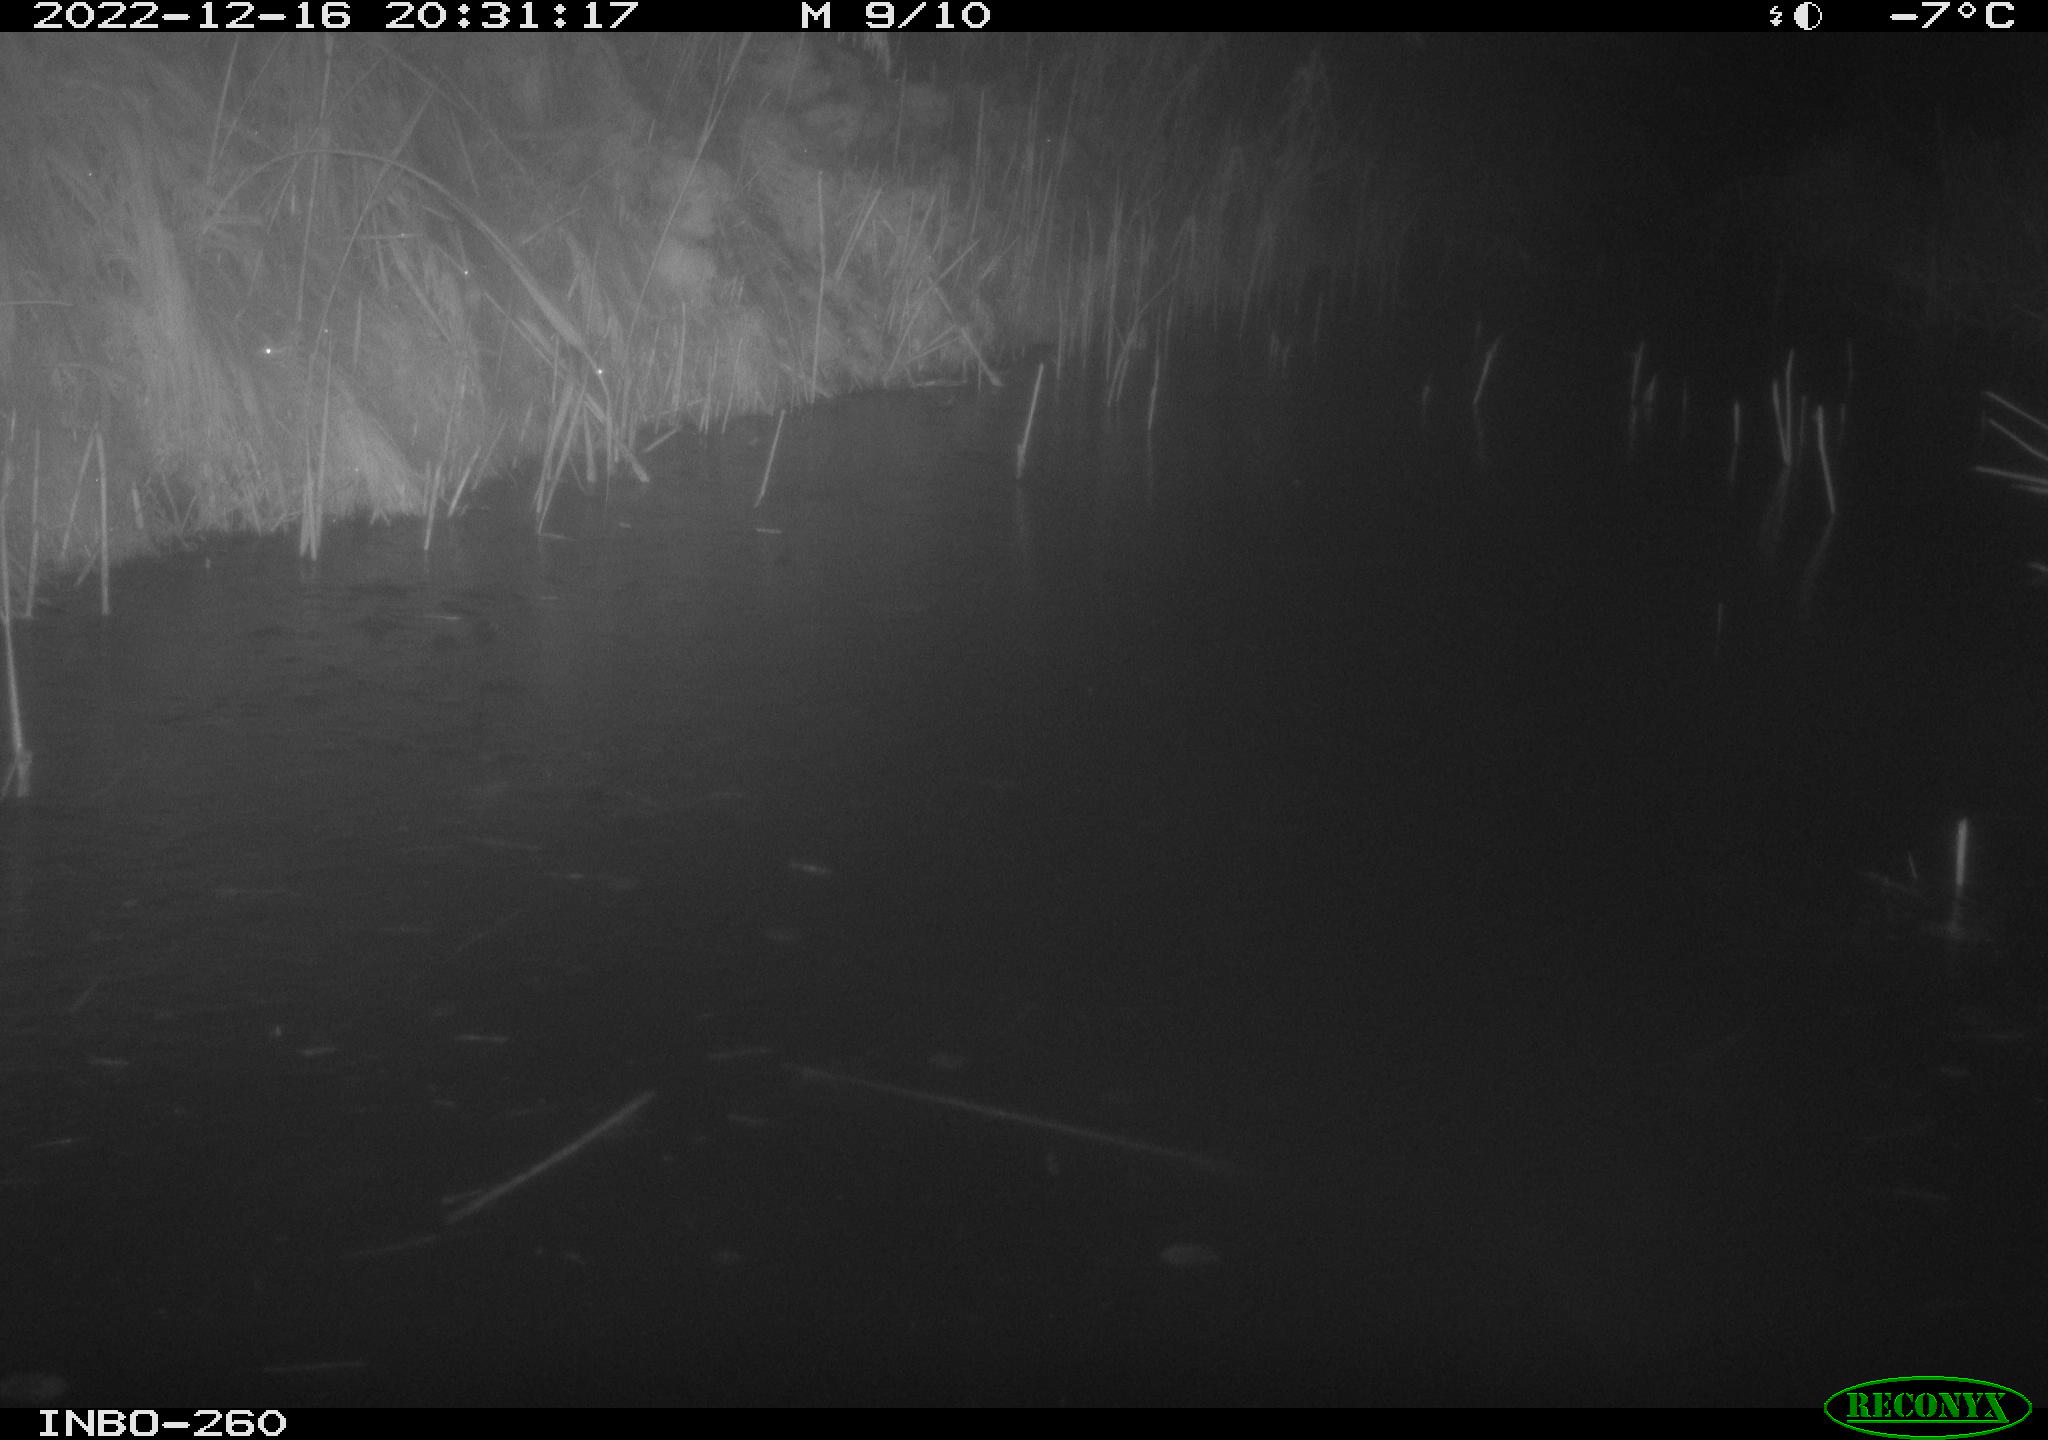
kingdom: Animalia
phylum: Chordata
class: Mammalia
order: Rodentia
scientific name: Rodentia
